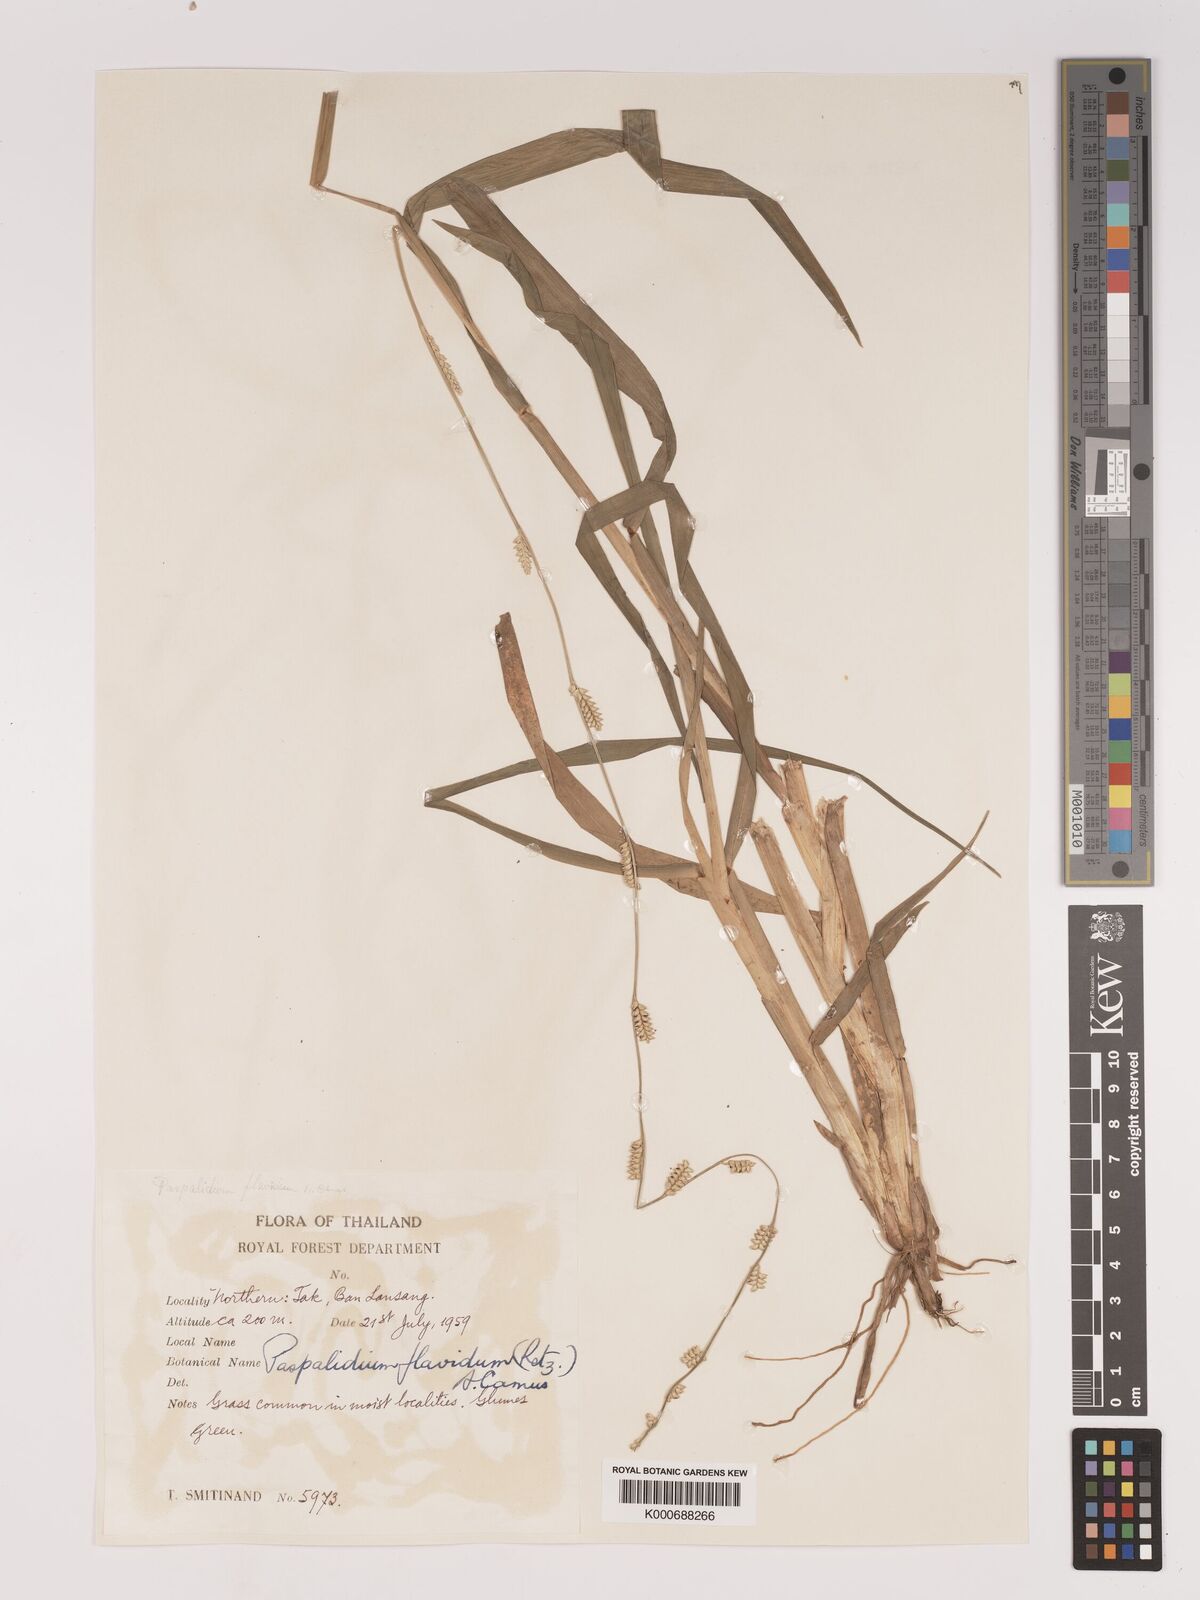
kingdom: Plantae
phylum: Tracheophyta
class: Liliopsida
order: Poales
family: Poaceae
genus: Setaria
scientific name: Setaria flavida
